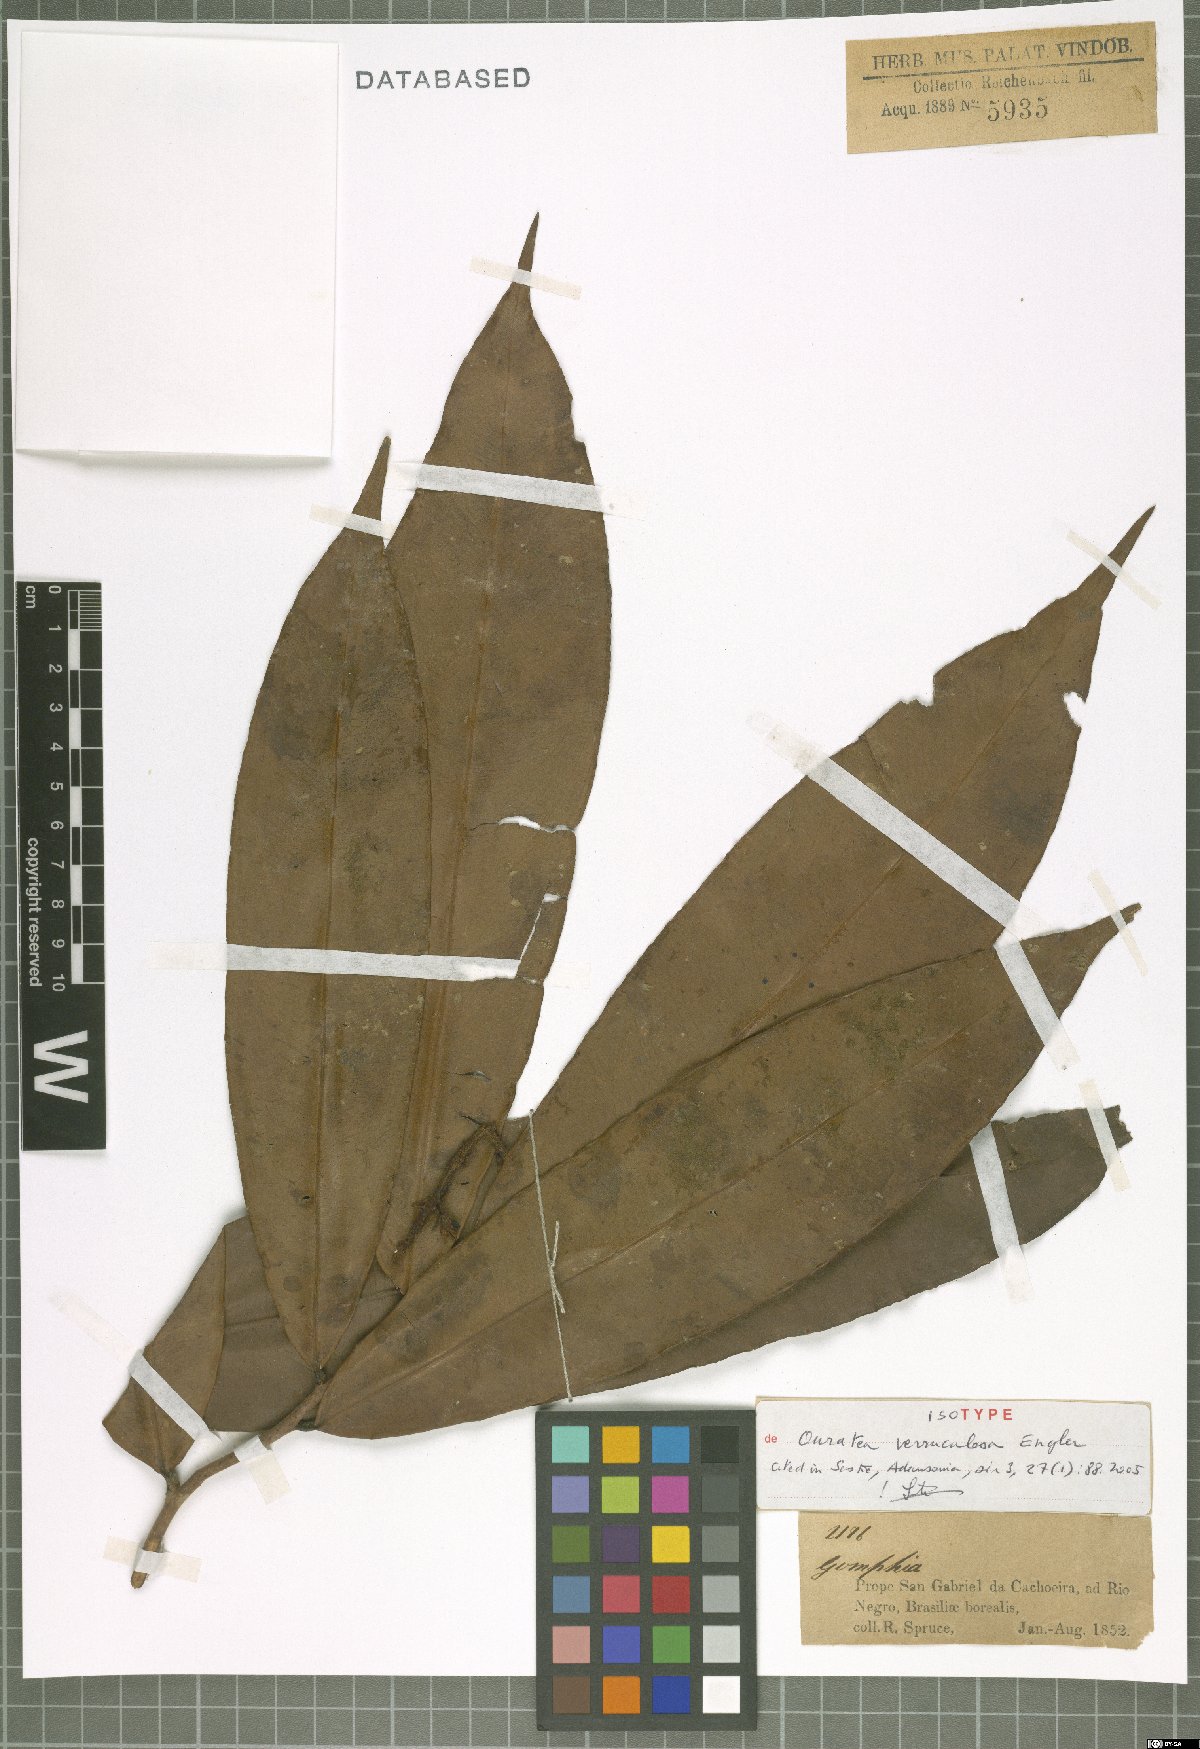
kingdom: Plantae
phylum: Tracheophyta
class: Magnoliopsida
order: Malpighiales
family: Ochnaceae
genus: Ouratea
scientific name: Ouratea verruculosa
